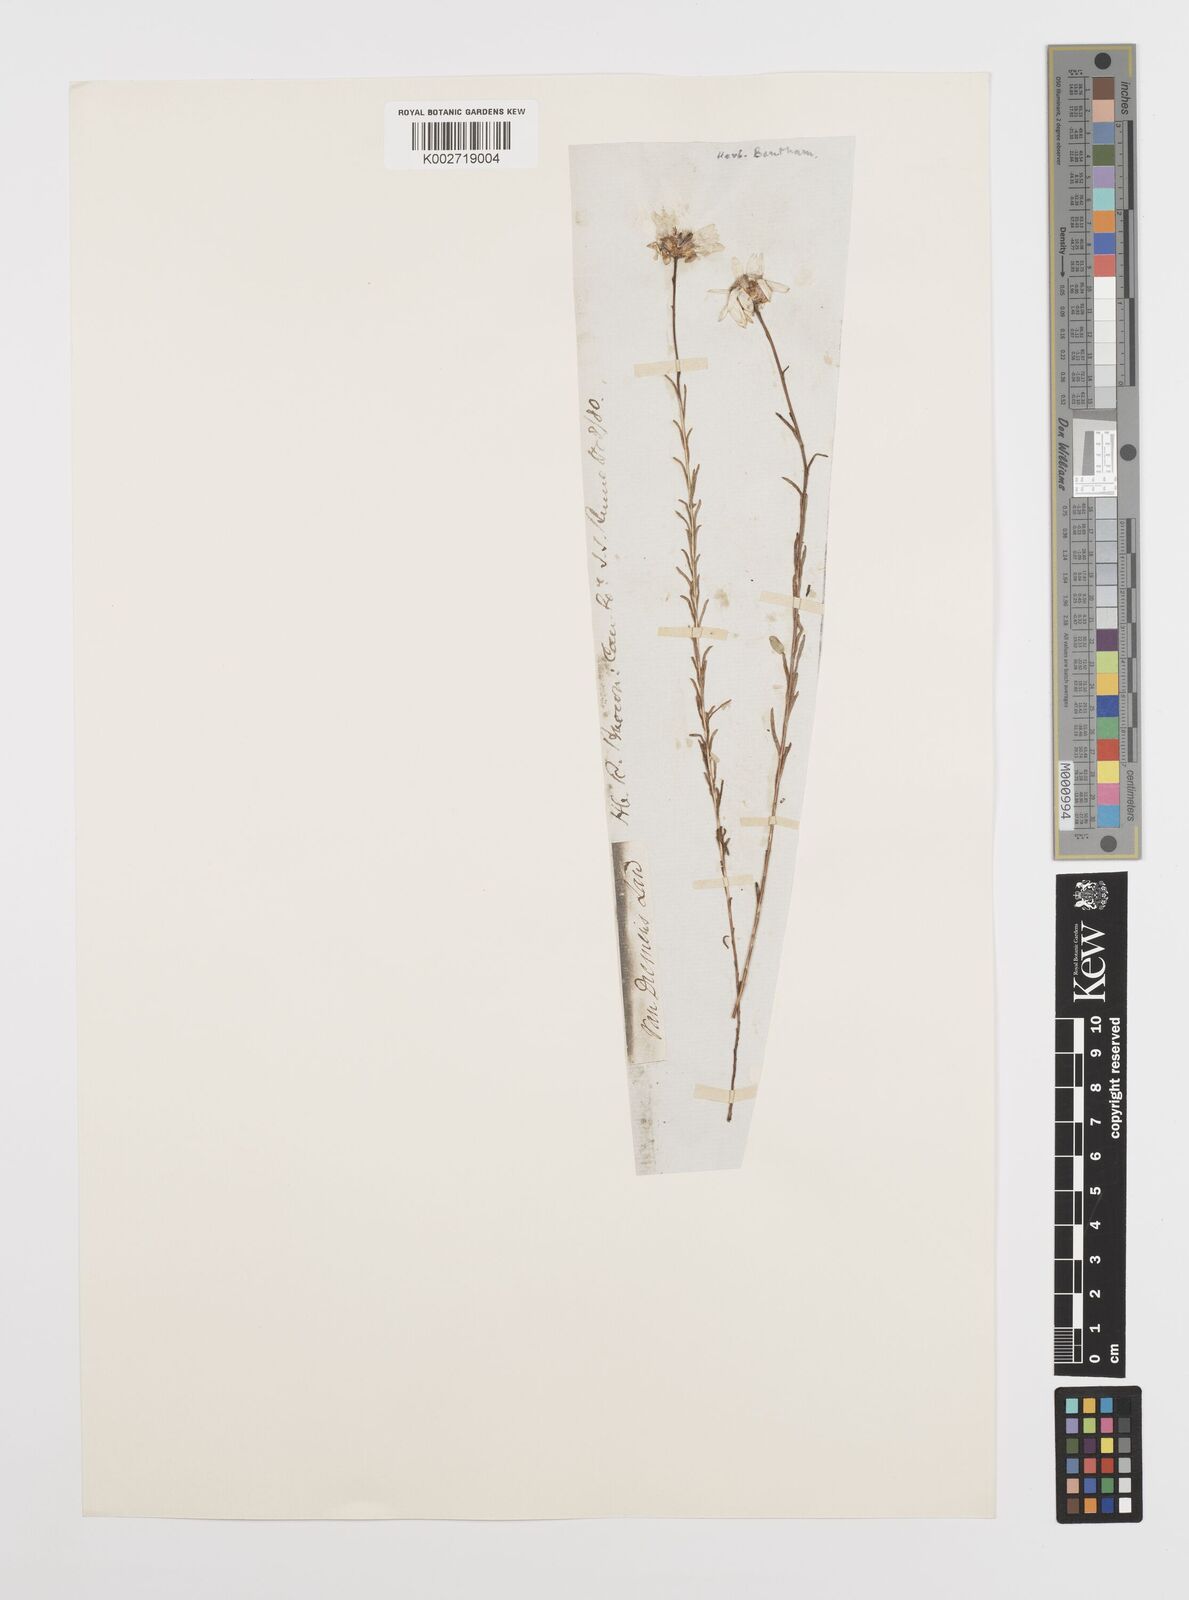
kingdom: Plantae
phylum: Tracheophyta
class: Magnoliopsida
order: Asterales
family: Asteraceae
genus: Rhodanthe
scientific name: Rhodanthe anthemoides
